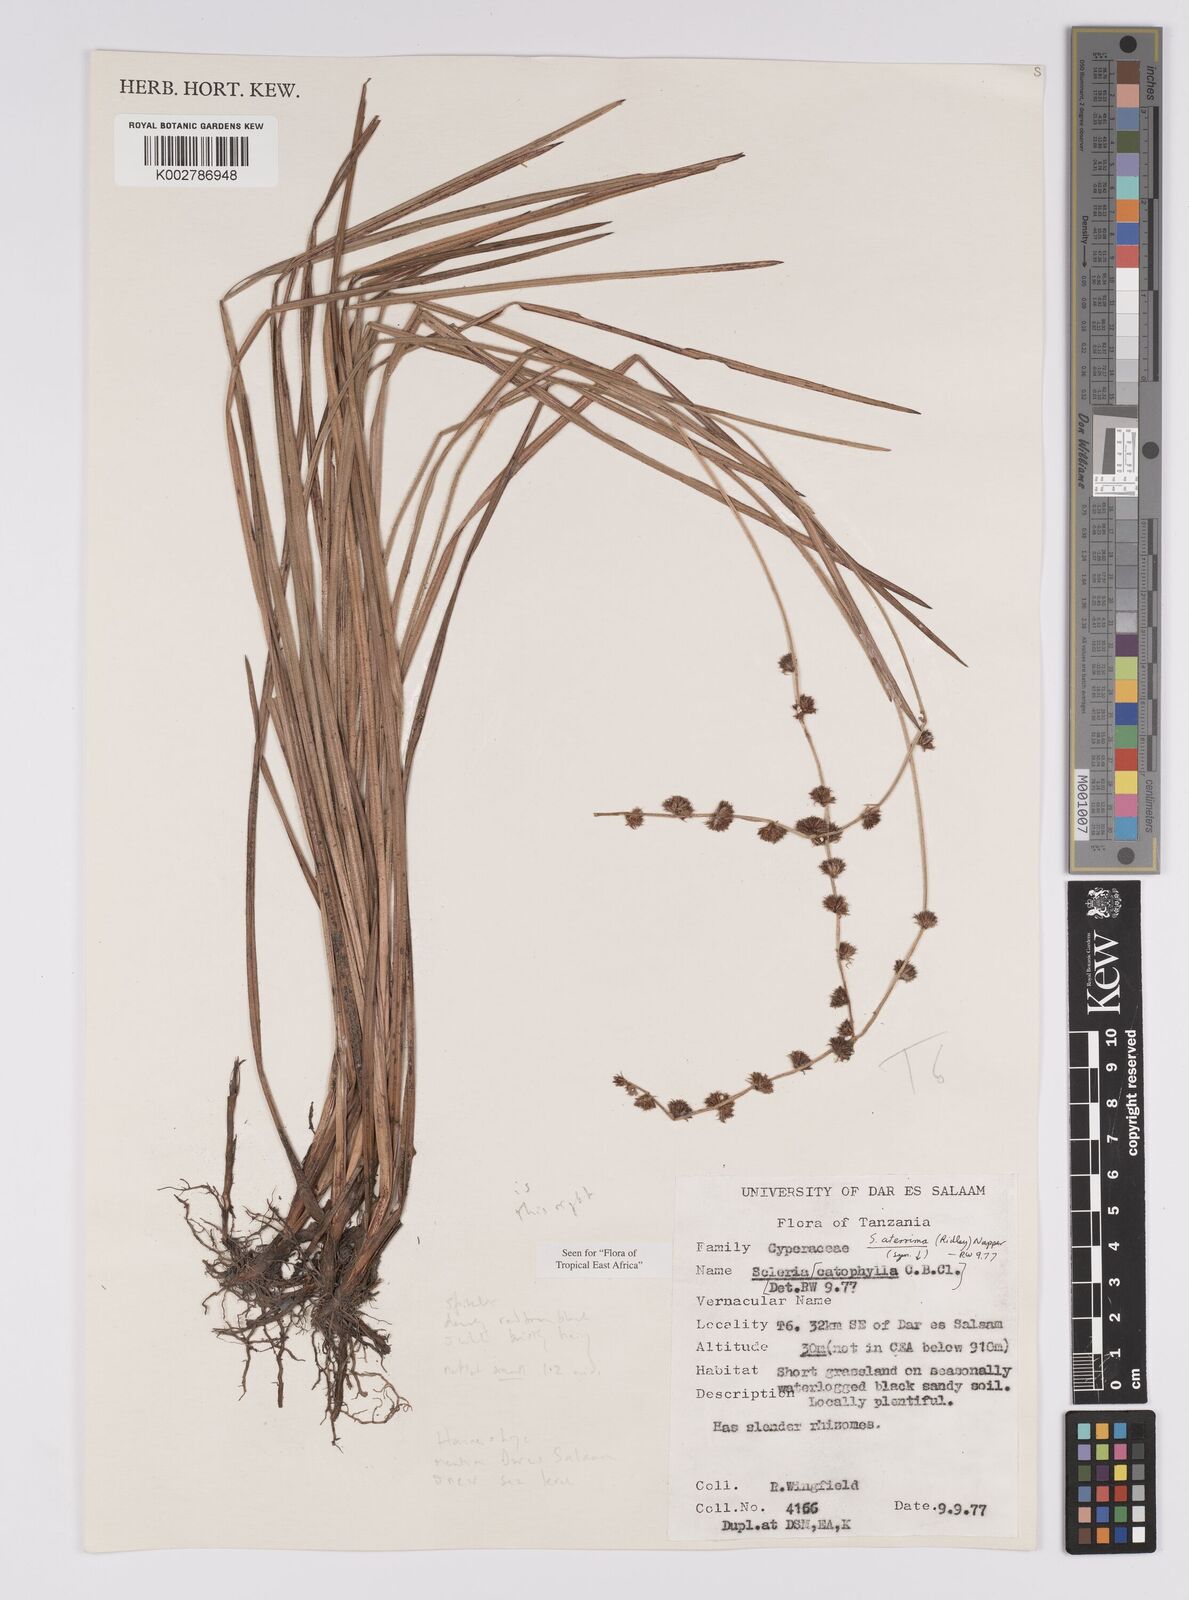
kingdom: Plantae
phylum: Tracheophyta
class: Liliopsida
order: Poales
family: Cyperaceae
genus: Scleria
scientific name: Scleria catophylla
